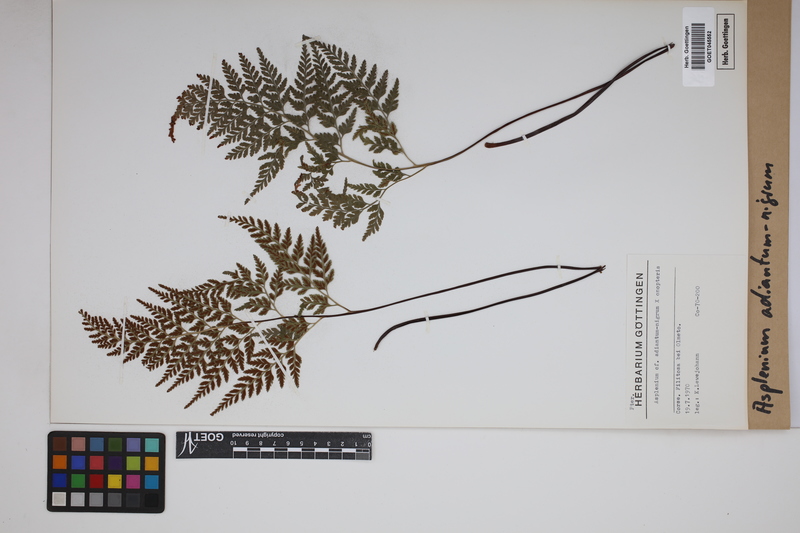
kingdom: Plantae
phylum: Tracheophyta
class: Polypodiopsida
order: Polypodiales
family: Aspleniaceae
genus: Asplenium
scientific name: Asplenium adiantum-nigrum
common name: Black spleenwort
